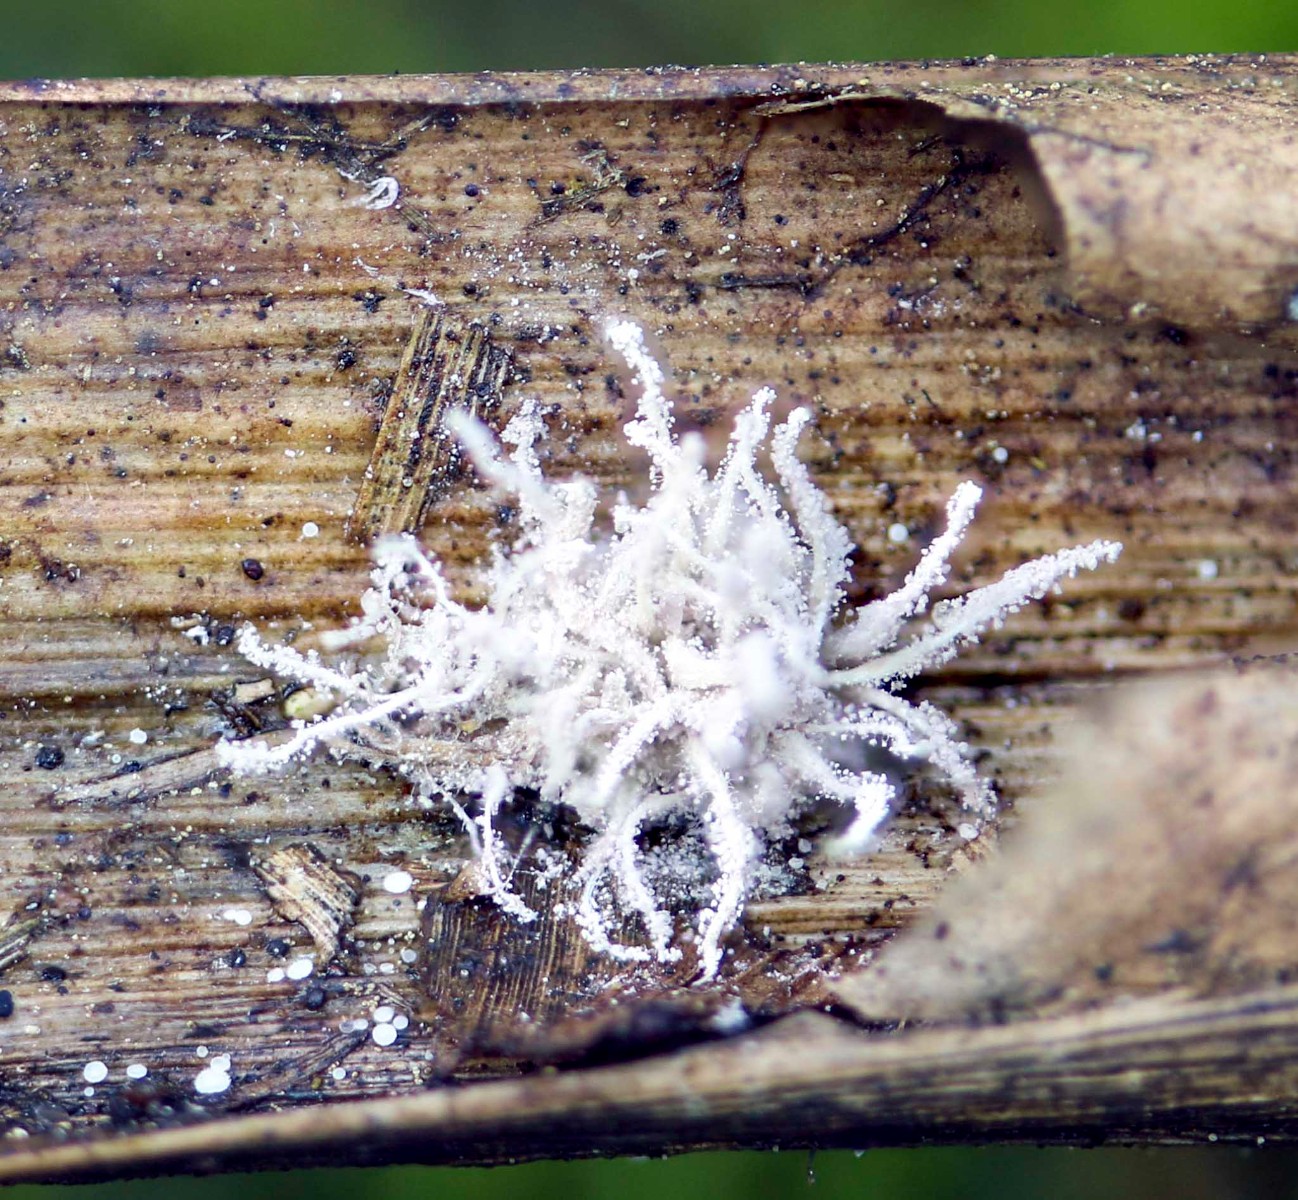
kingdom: Fungi
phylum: Ascomycota
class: Sordariomycetes
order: Hypocreales
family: Cordycipitaceae
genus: Gibellula
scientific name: Gibellula pulchra
